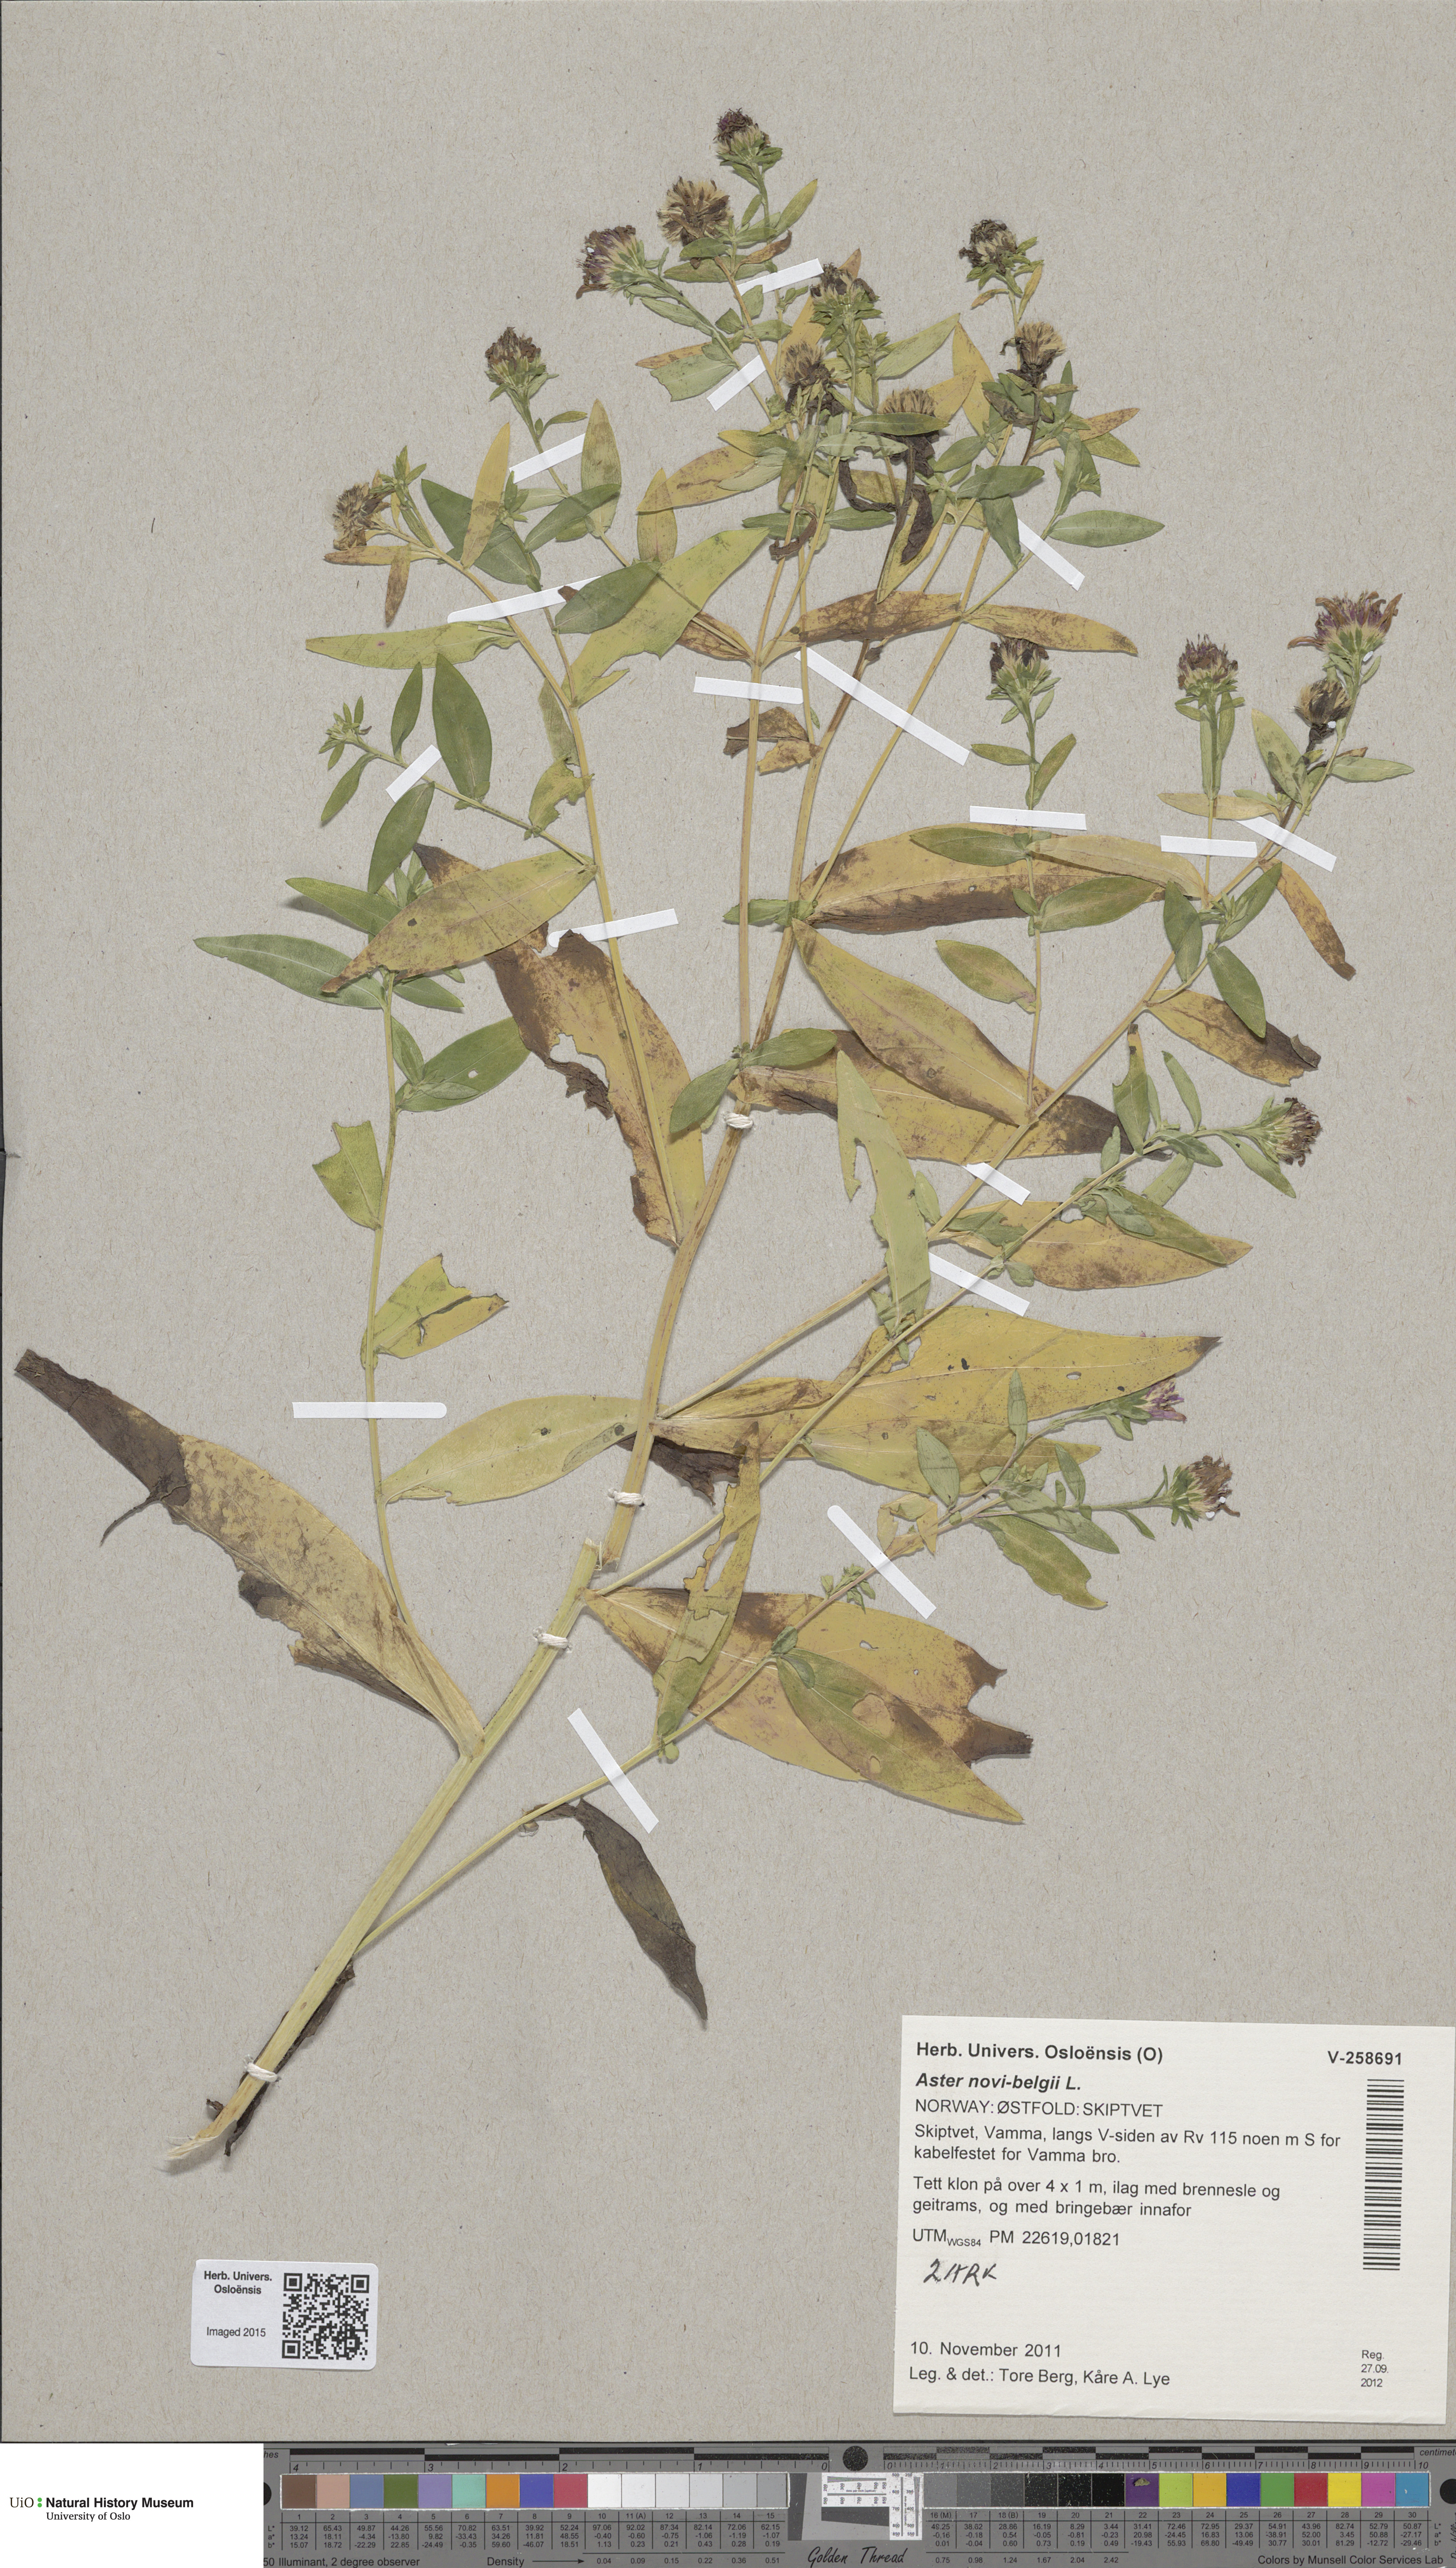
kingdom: Plantae
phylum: Tracheophyta
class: Magnoliopsida
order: Asterales
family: Asteraceae
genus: Symphyotrichum
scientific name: Symphyotrichum novi-belgii
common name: Michaelmas daisy
